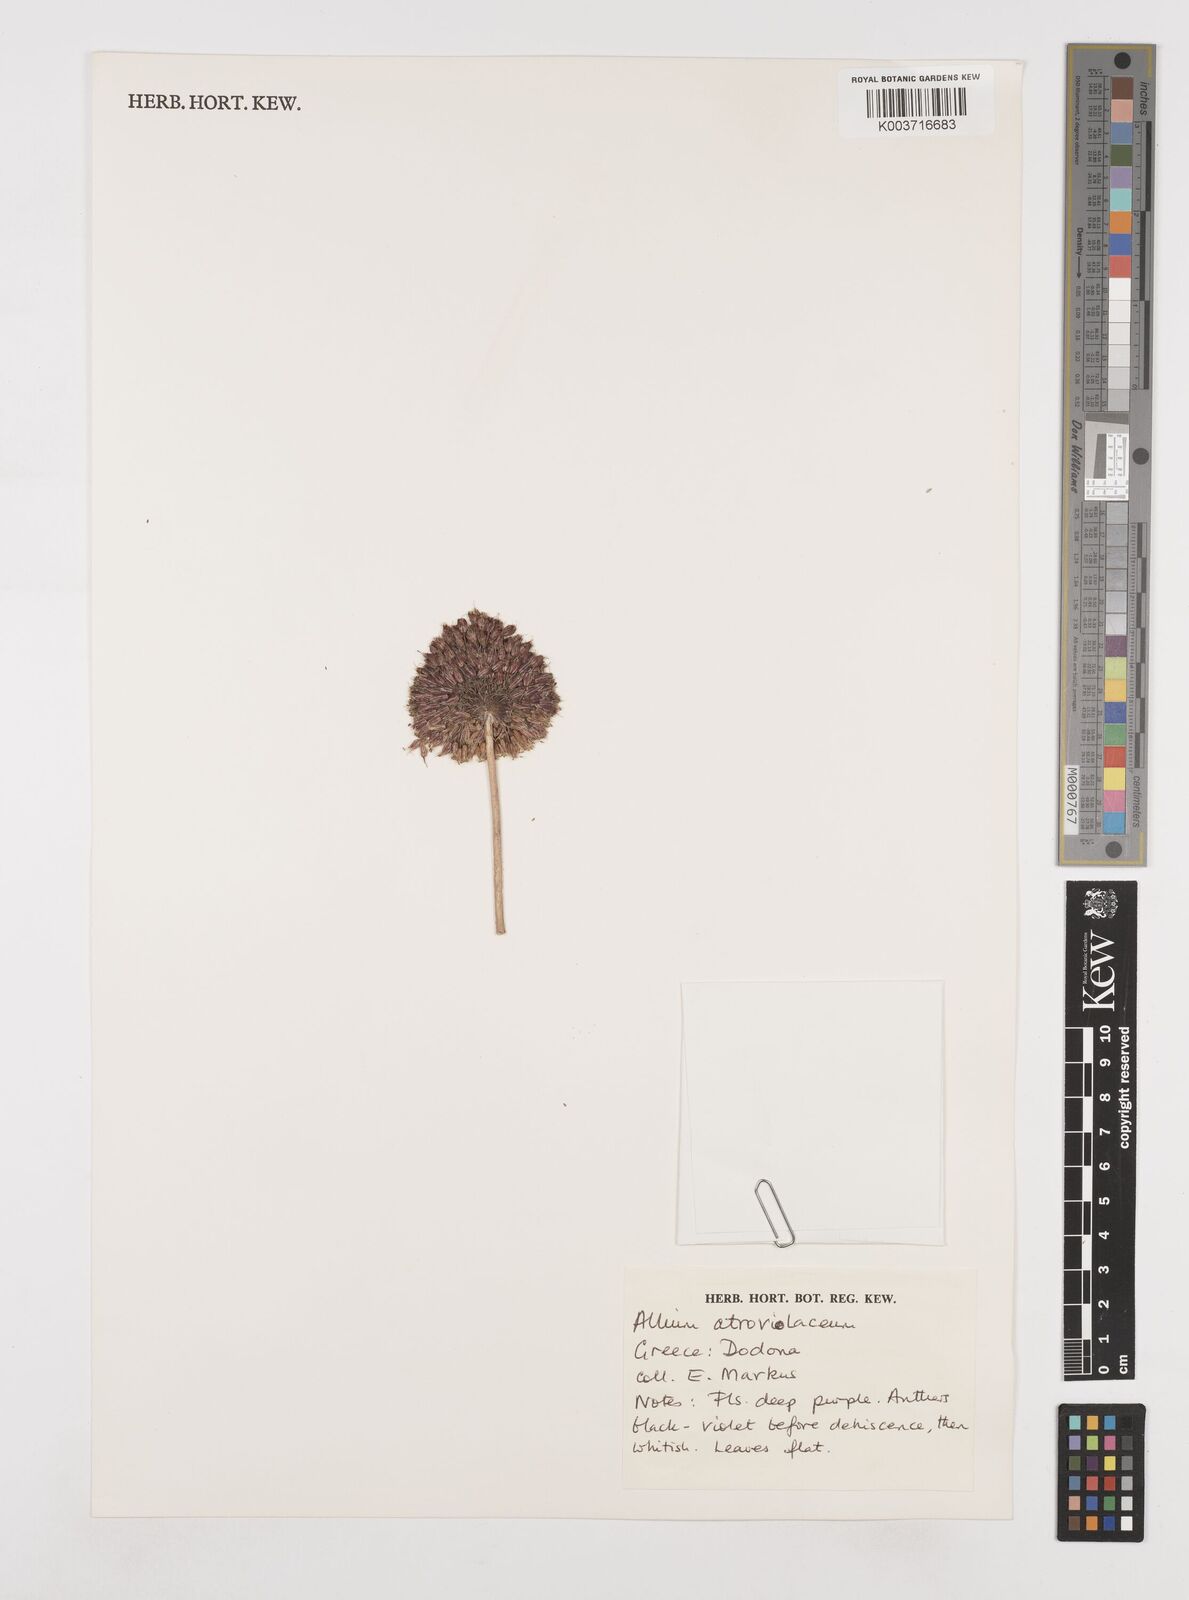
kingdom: Plantae
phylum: Tracheophyta
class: Liliopsida
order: Asparagales
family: Amaryllidaceae
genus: Allium
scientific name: Allium sphaerocephalon
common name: Round-headed leek
